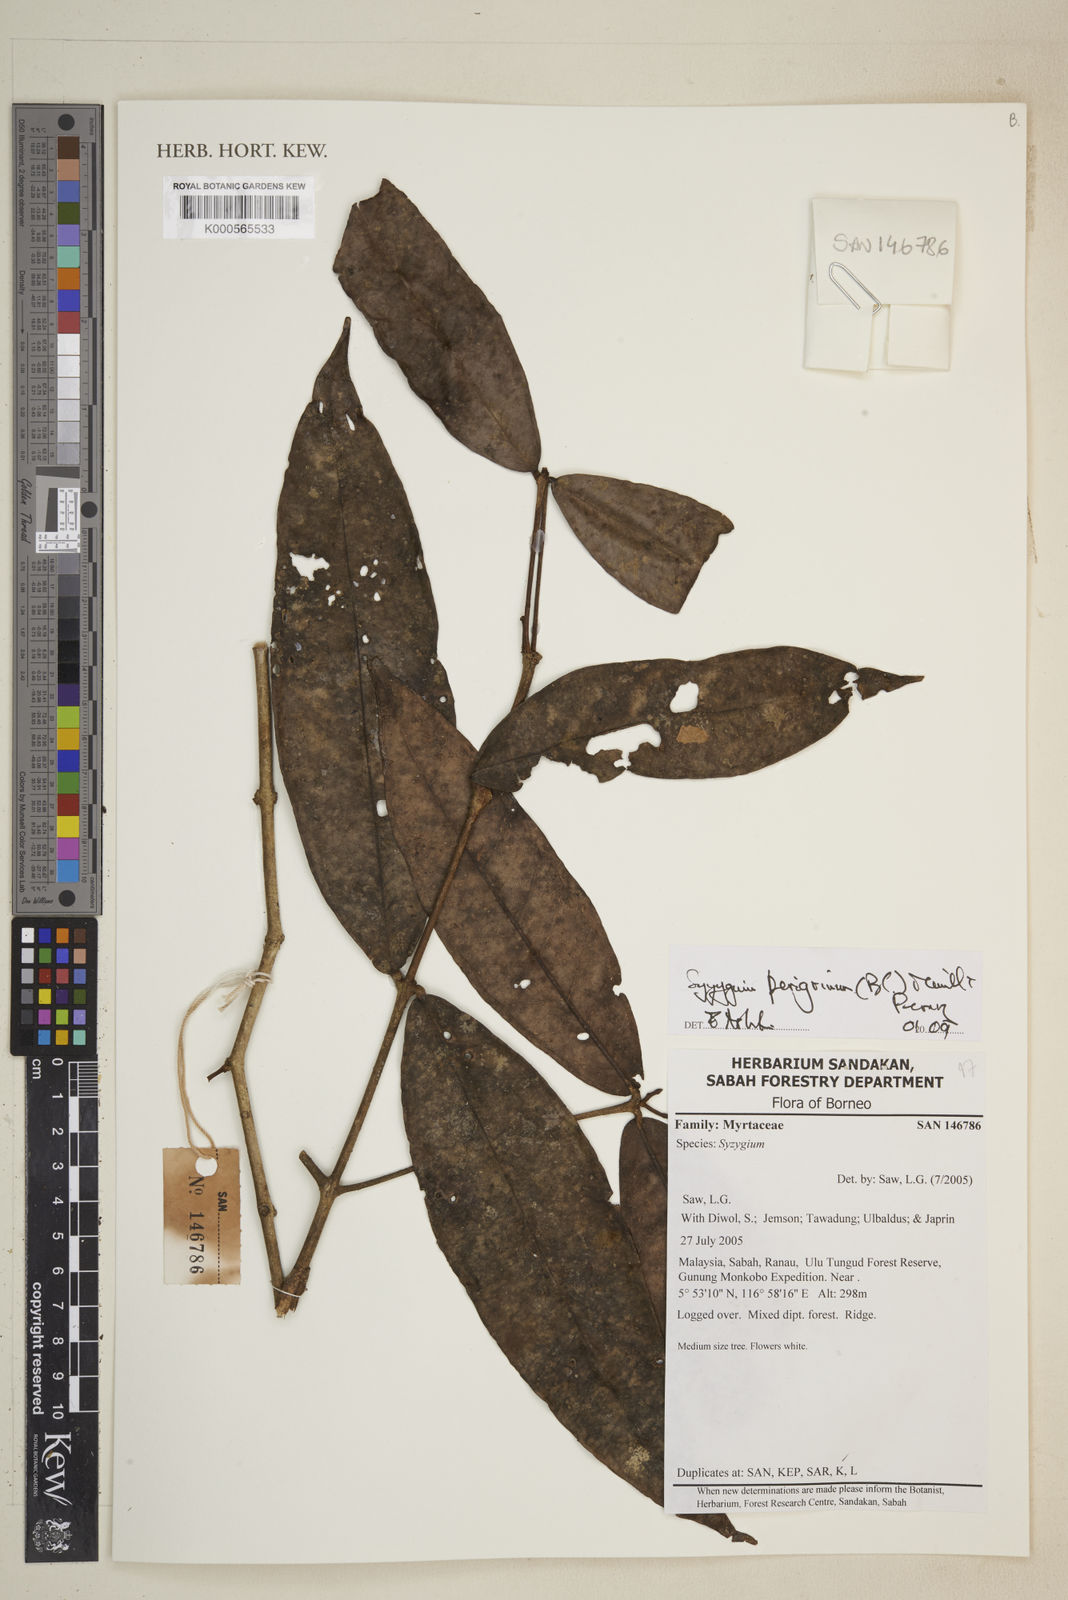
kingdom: Plantae
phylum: Tracheophyta
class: Magnoliopsida
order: Myrtales
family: Myrtaceae
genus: Syzygium
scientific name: Syzygium peregrinum
